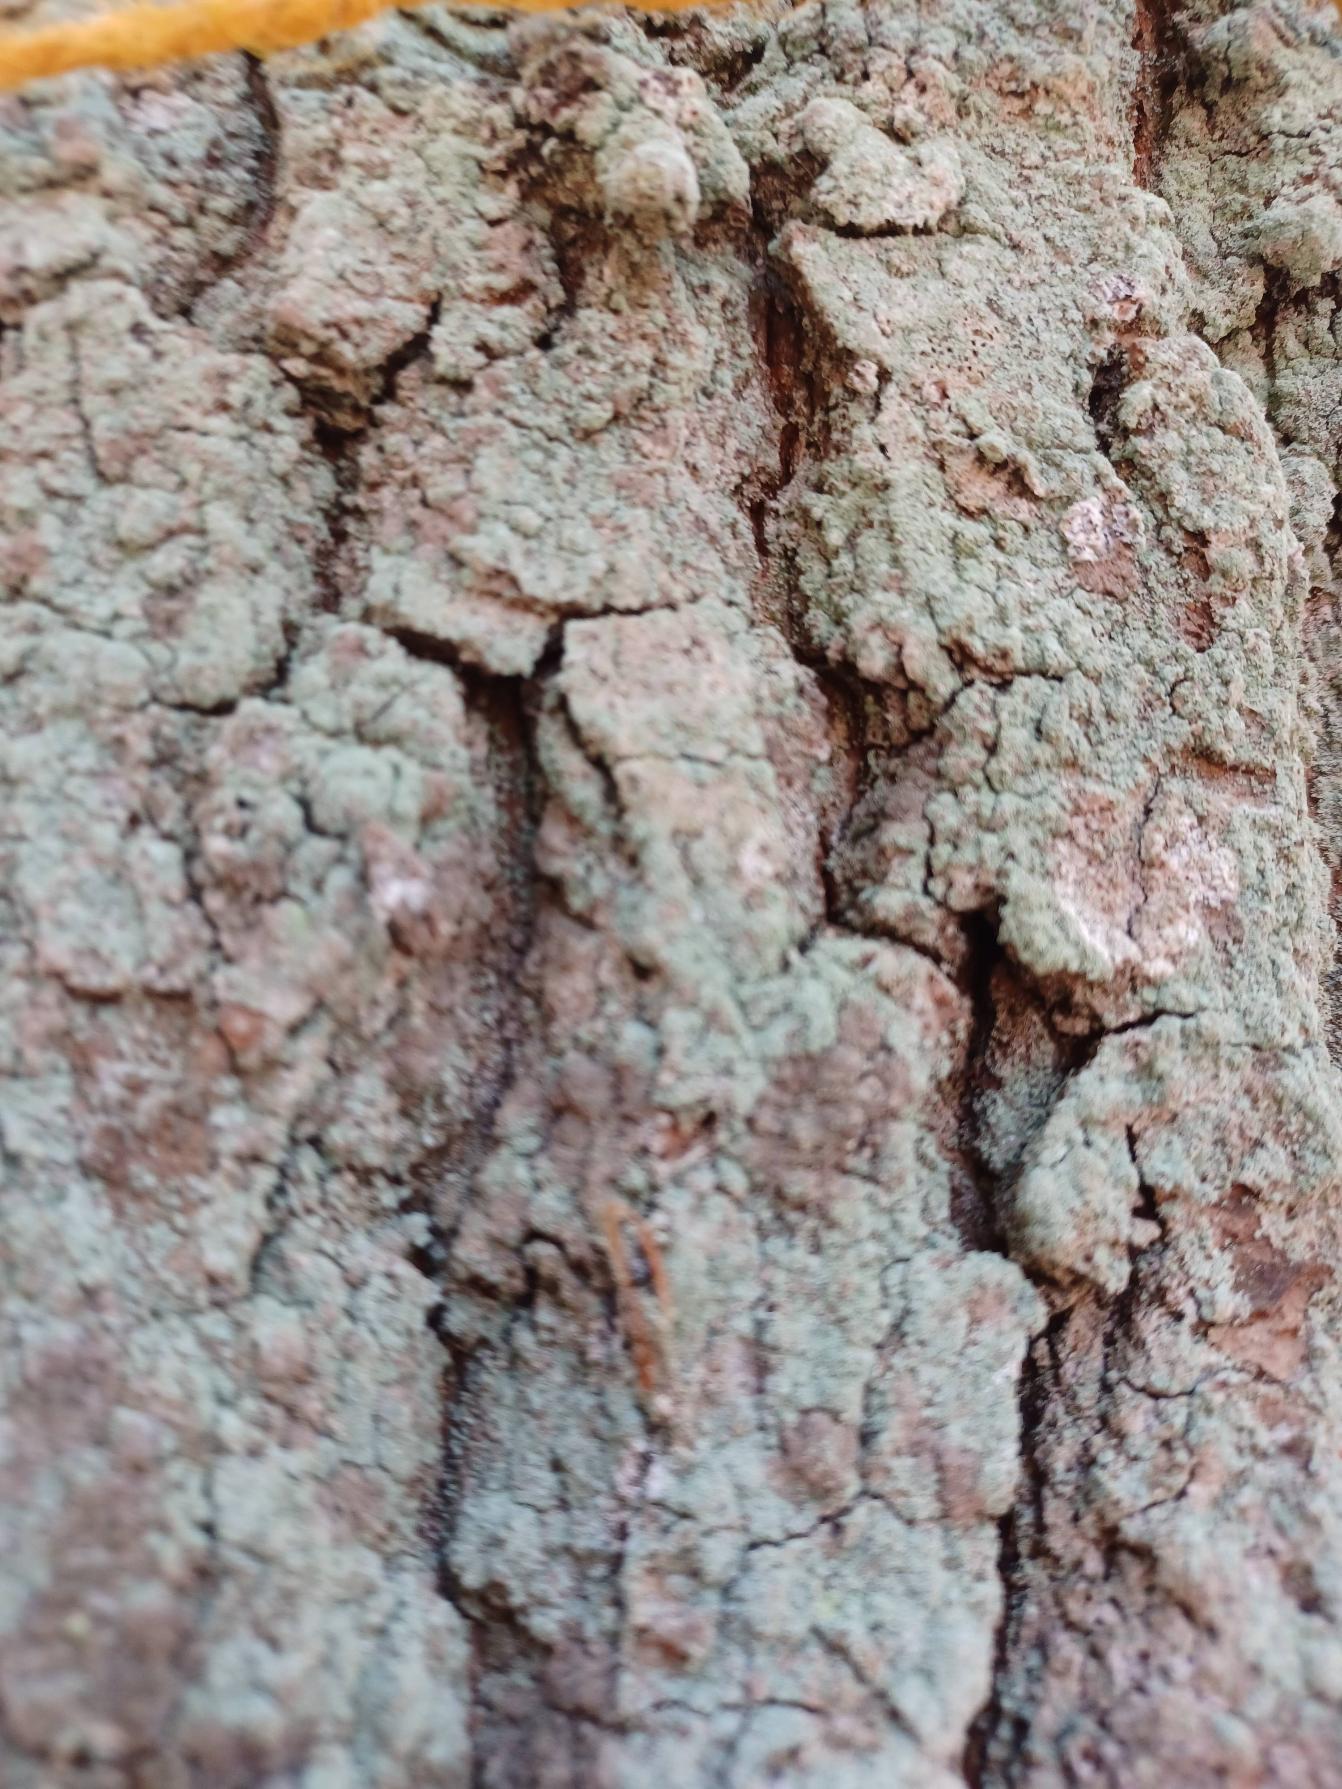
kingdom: Fungi
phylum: Ascomycota
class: Lecanoromycetes
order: Ostropales
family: Phlyctidaceae
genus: Phlyctis
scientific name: Phlyctis argena
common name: Almindelig sølvlav
